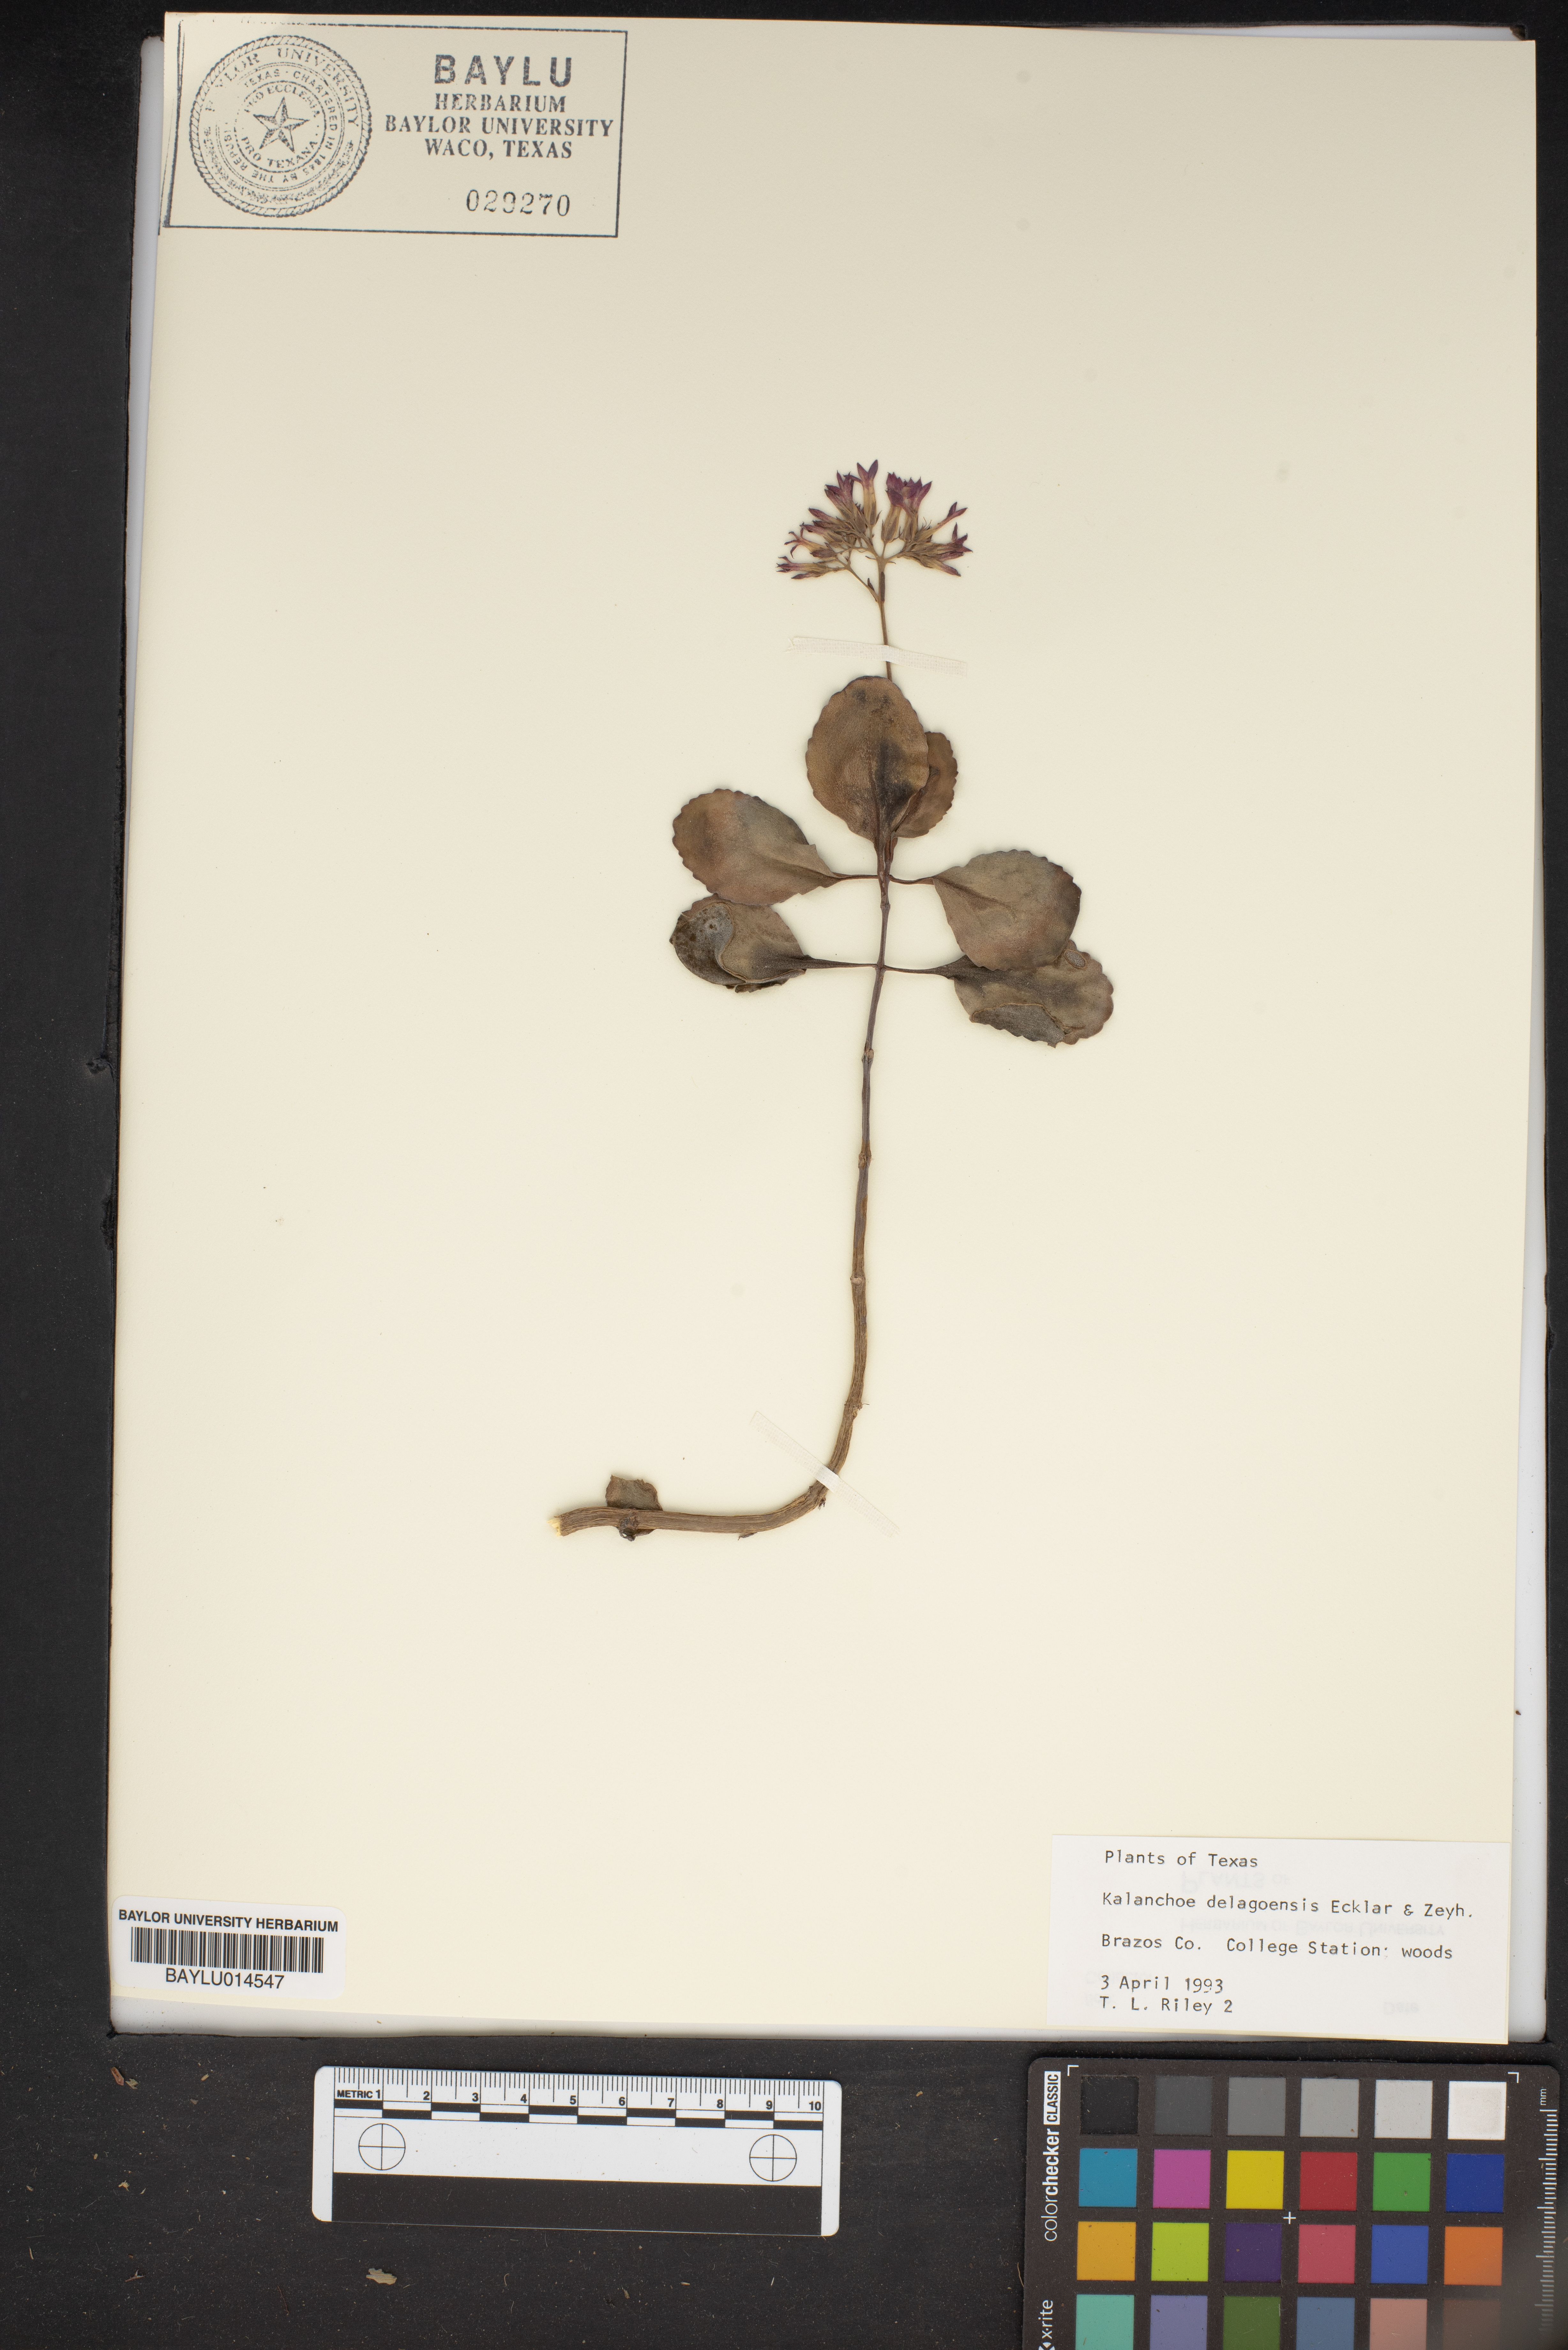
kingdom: Plantae
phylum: Tracheophyta
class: Magnoliopsida
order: Saxifragales
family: Crassulaceae
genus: Kalanchoe
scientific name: Kalanchoe delagoensis
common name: Chandelier plant
